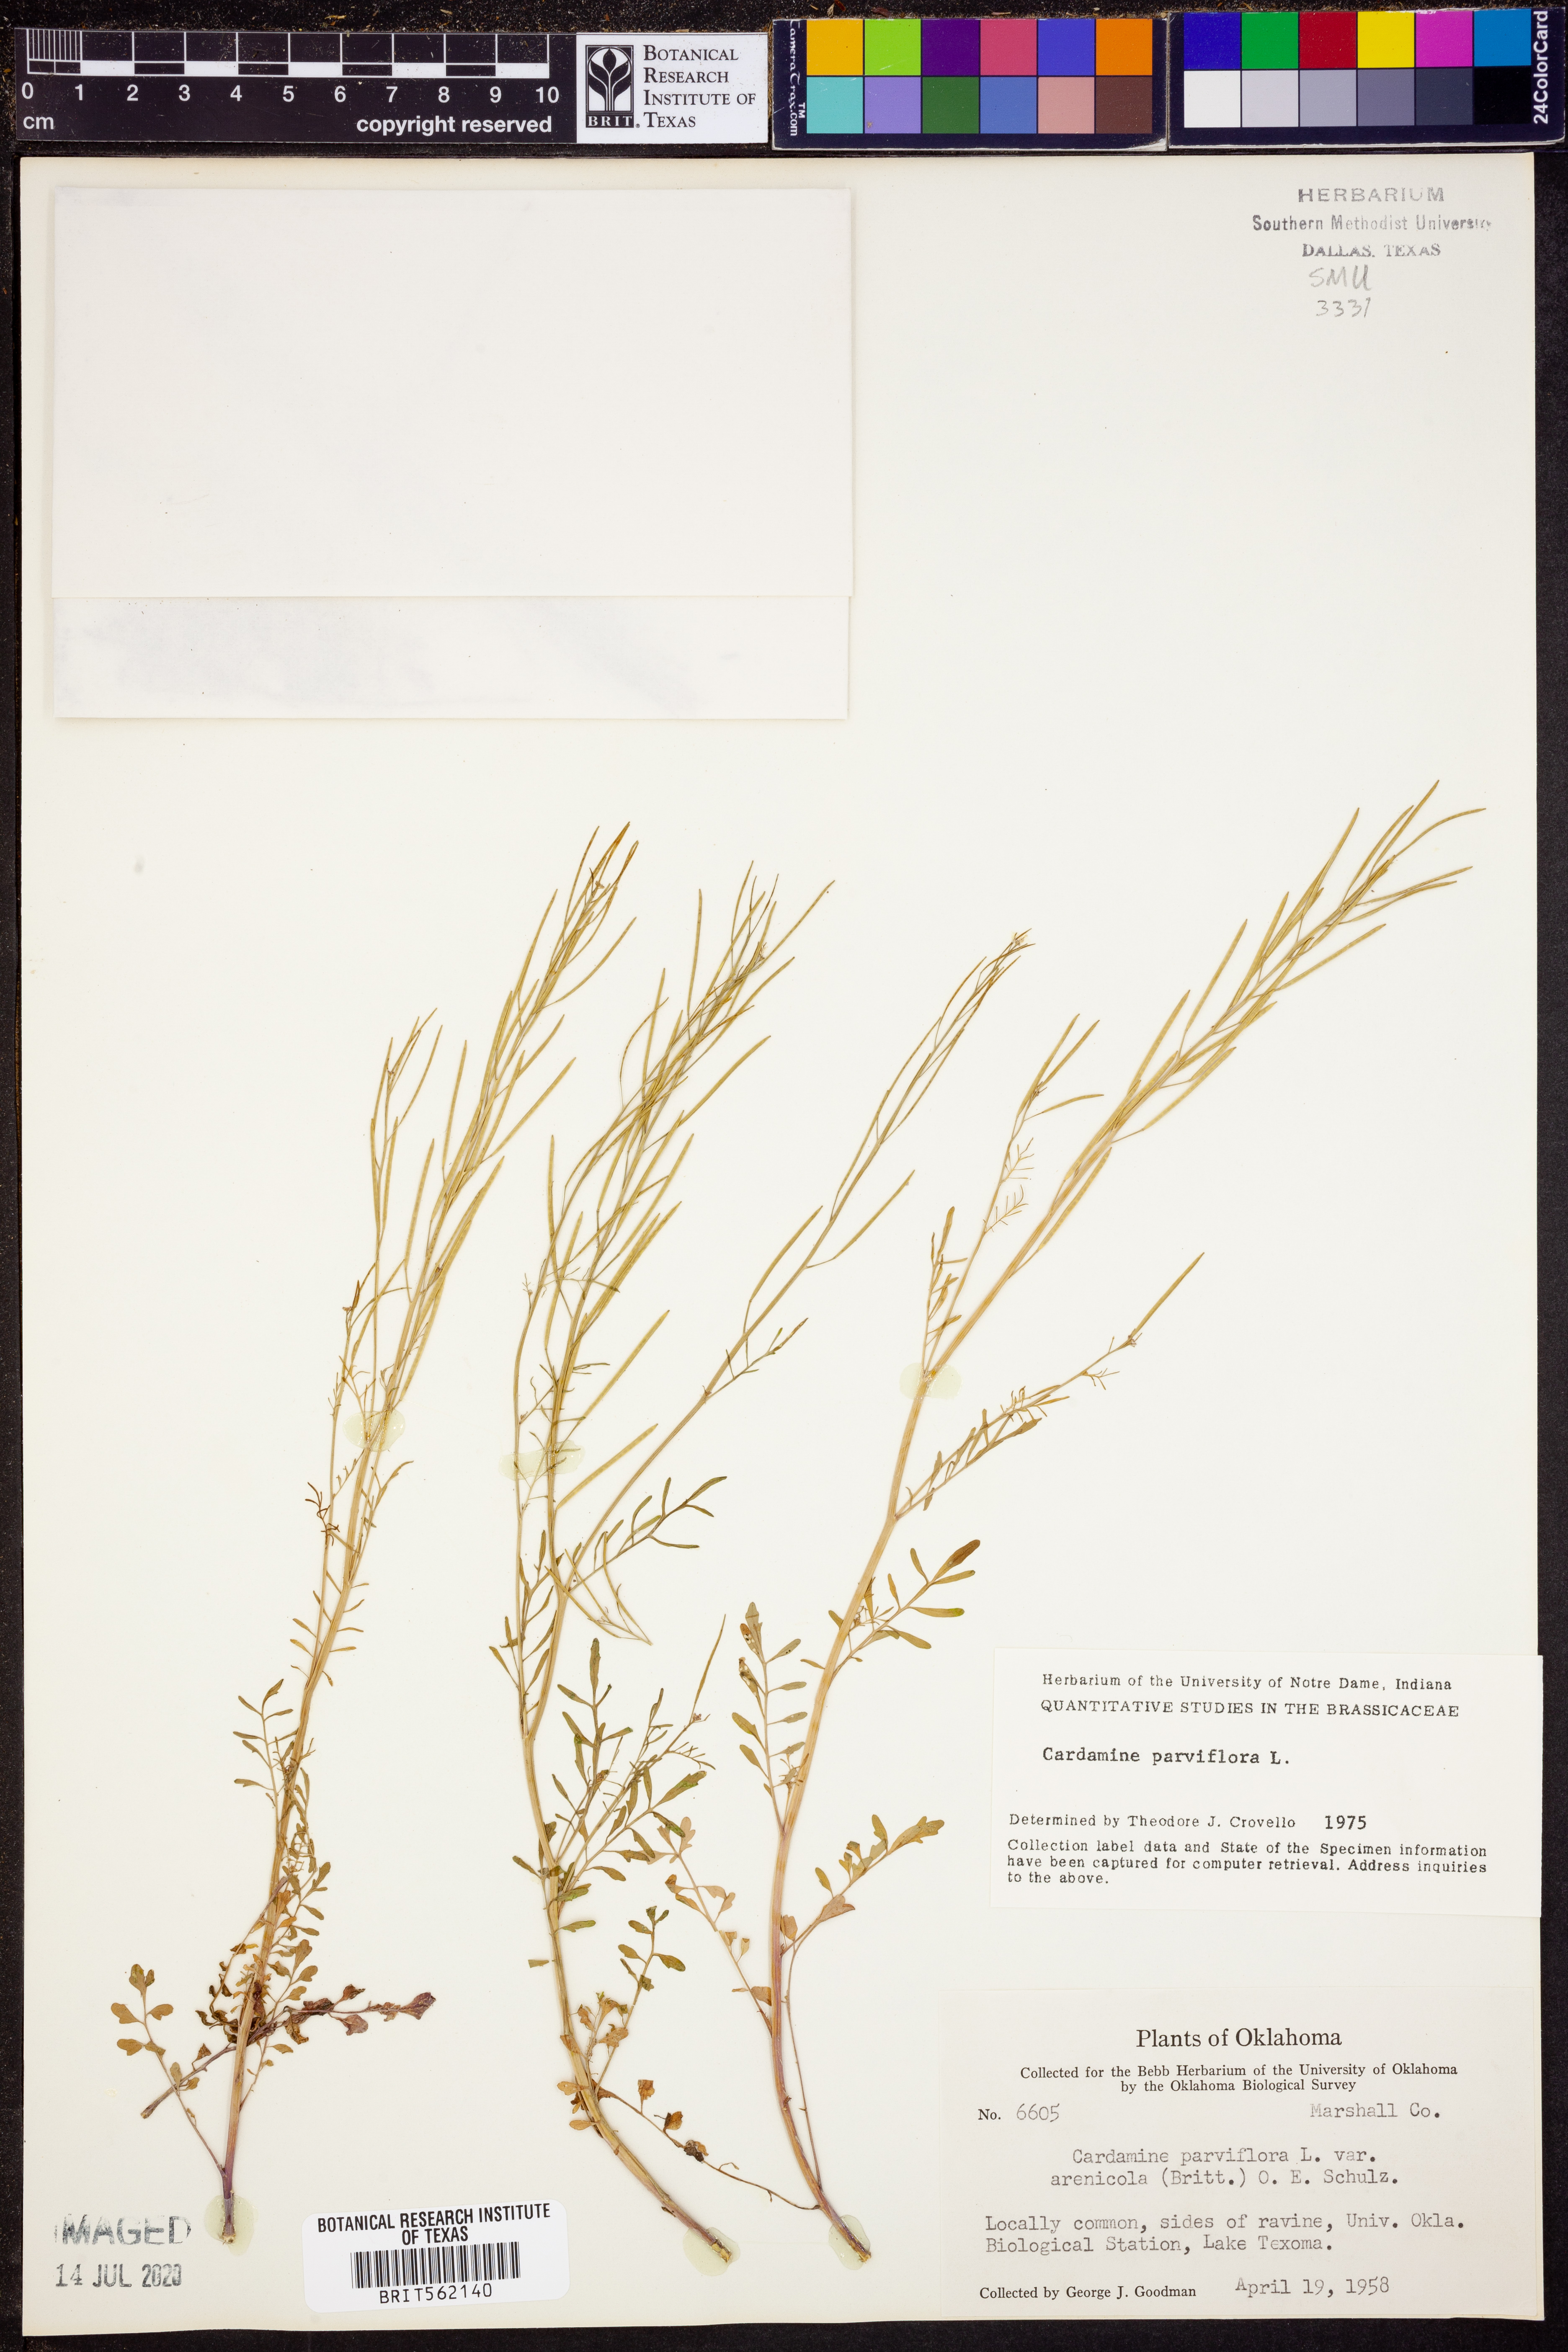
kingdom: Plantae
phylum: Tracheophyta
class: Magnoliopsida
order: Brassicales
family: Brassicaceae
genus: Cardamine
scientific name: Cardamine parviflora
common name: Sand bittercress
